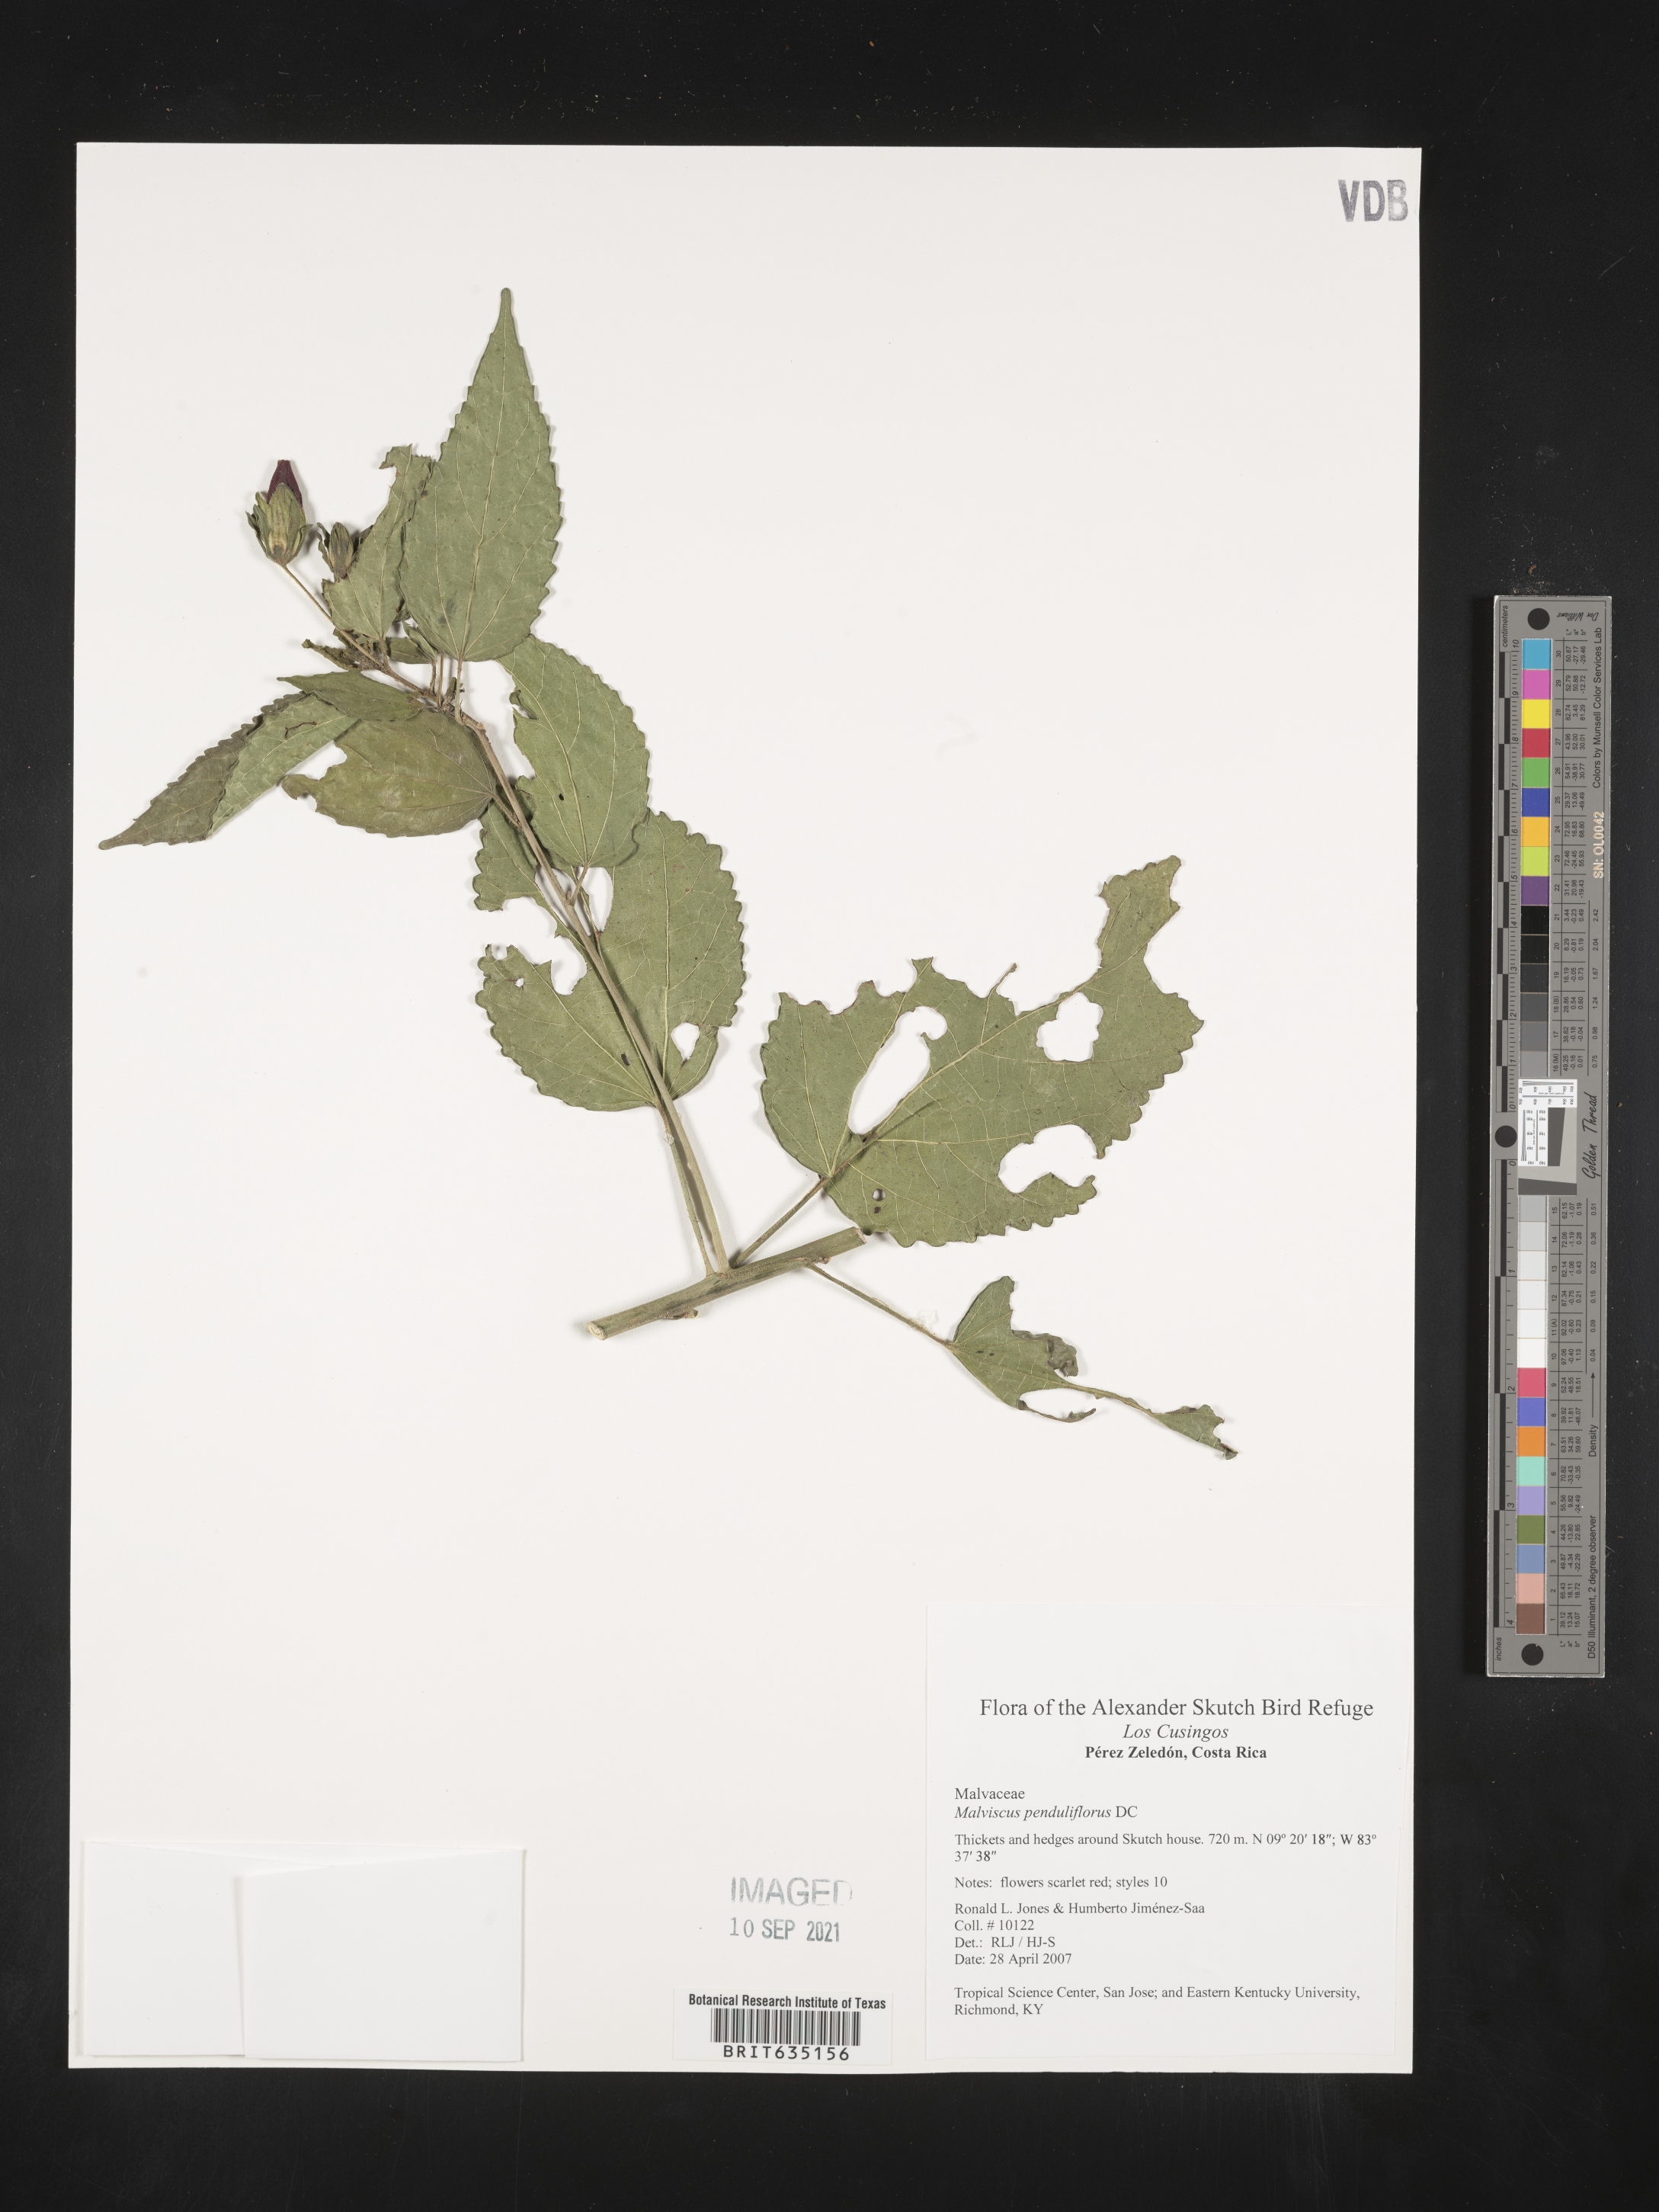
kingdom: Plantae
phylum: Tracheophyta
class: Magnoliopsida
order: Malvales
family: Malvaceae
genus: Malvaviscus
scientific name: Malvaviscus
